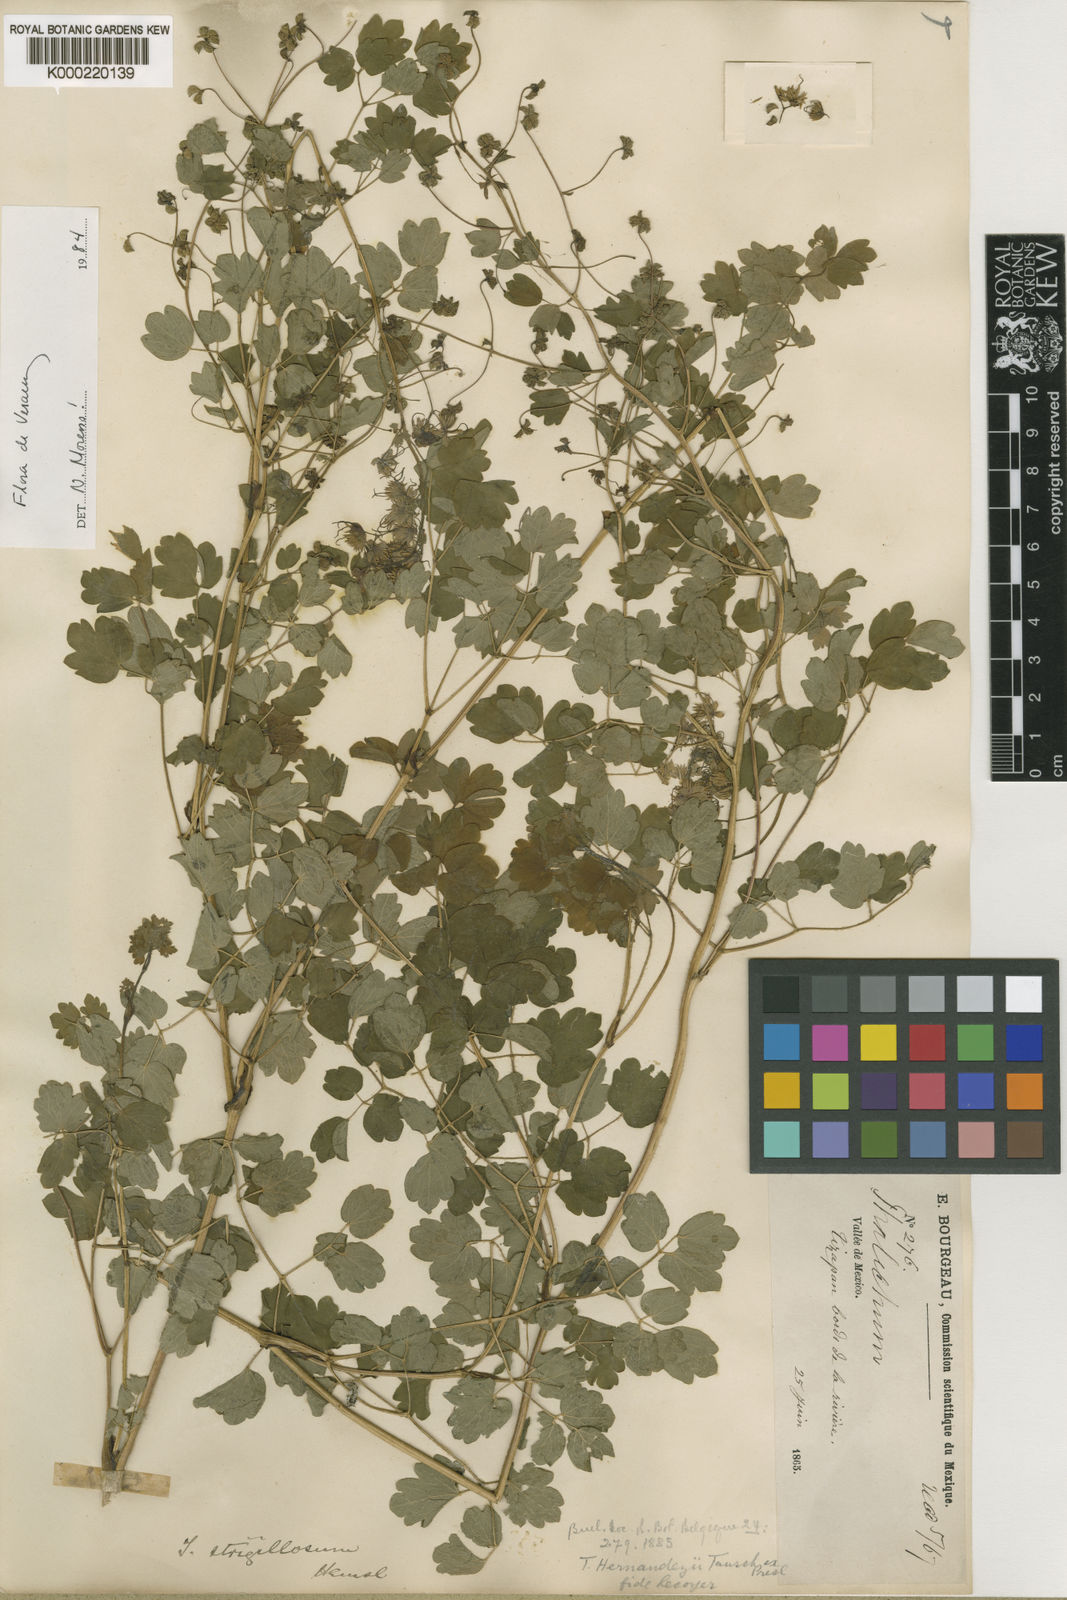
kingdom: Plantae
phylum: Tracheophyta
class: Magnoliopsida
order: Ranunculales
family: Ranunculaceae
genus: Thalictrum
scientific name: Thalictrum
